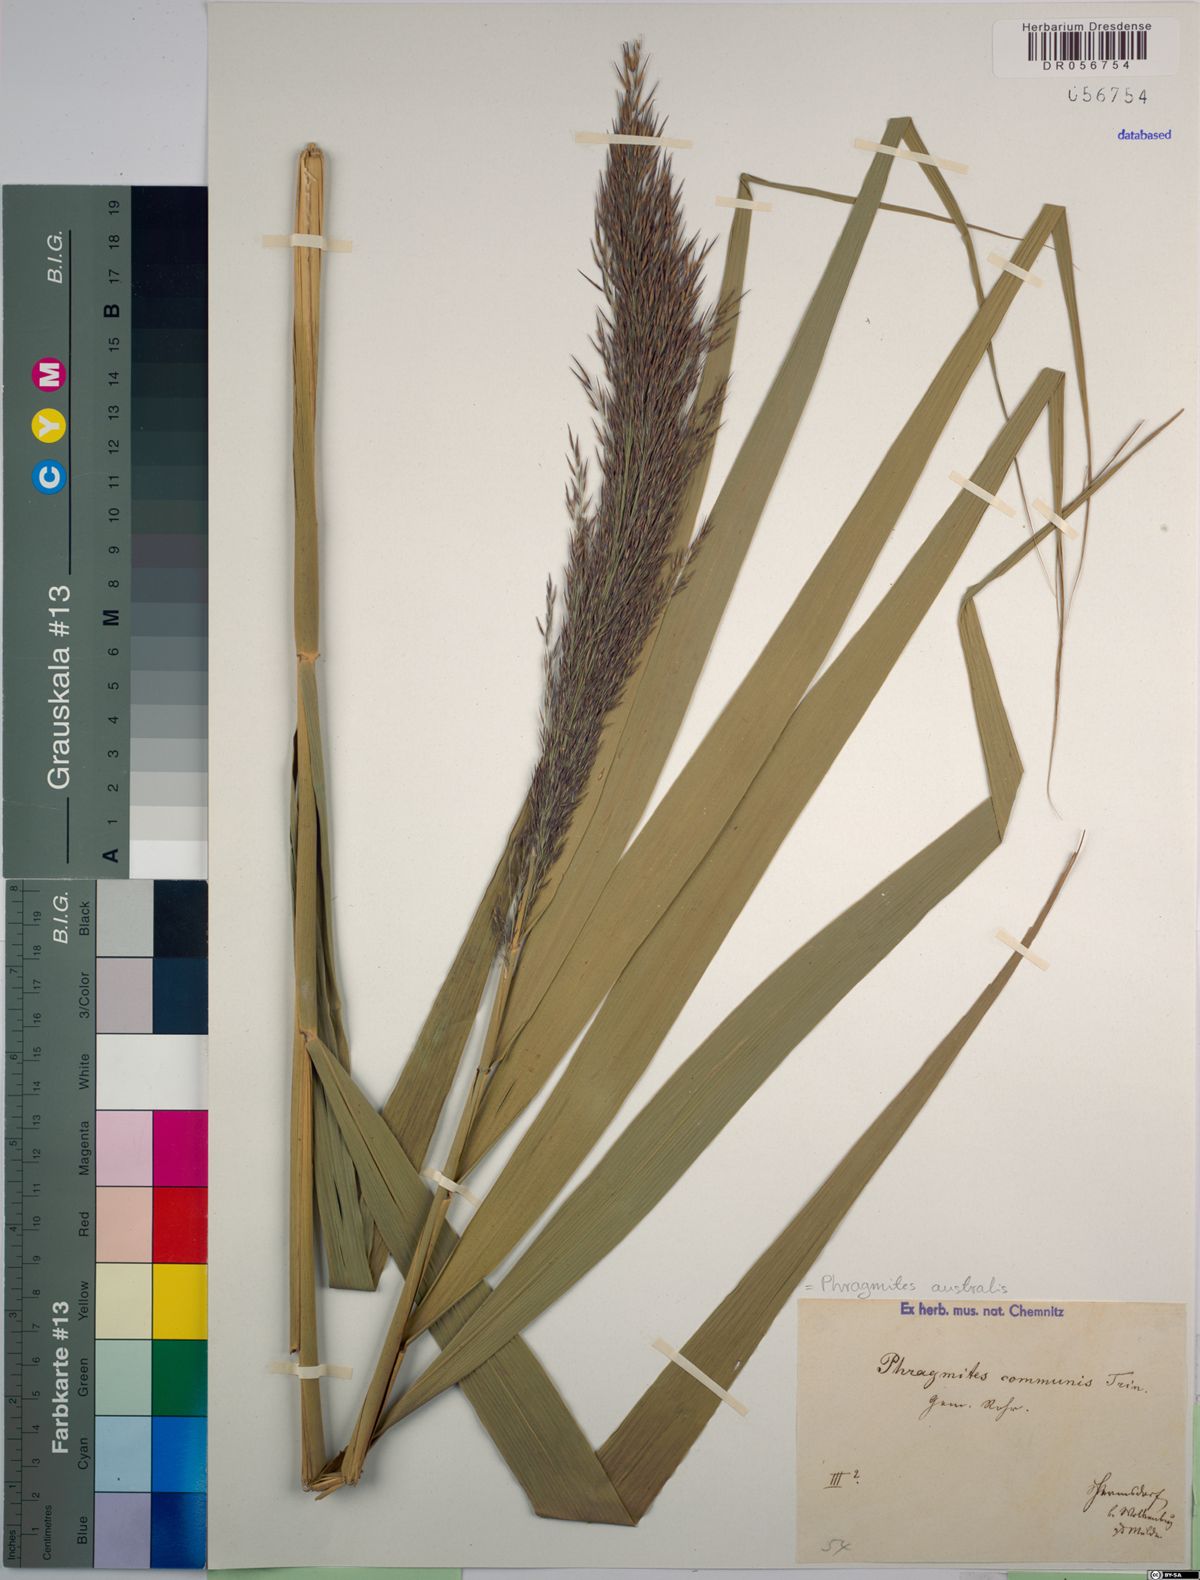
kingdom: Plantae
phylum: Tracheophyta
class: Liliopsida
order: Poales
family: Poaceae
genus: Phragmites
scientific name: Phragmites australis
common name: Common reed
